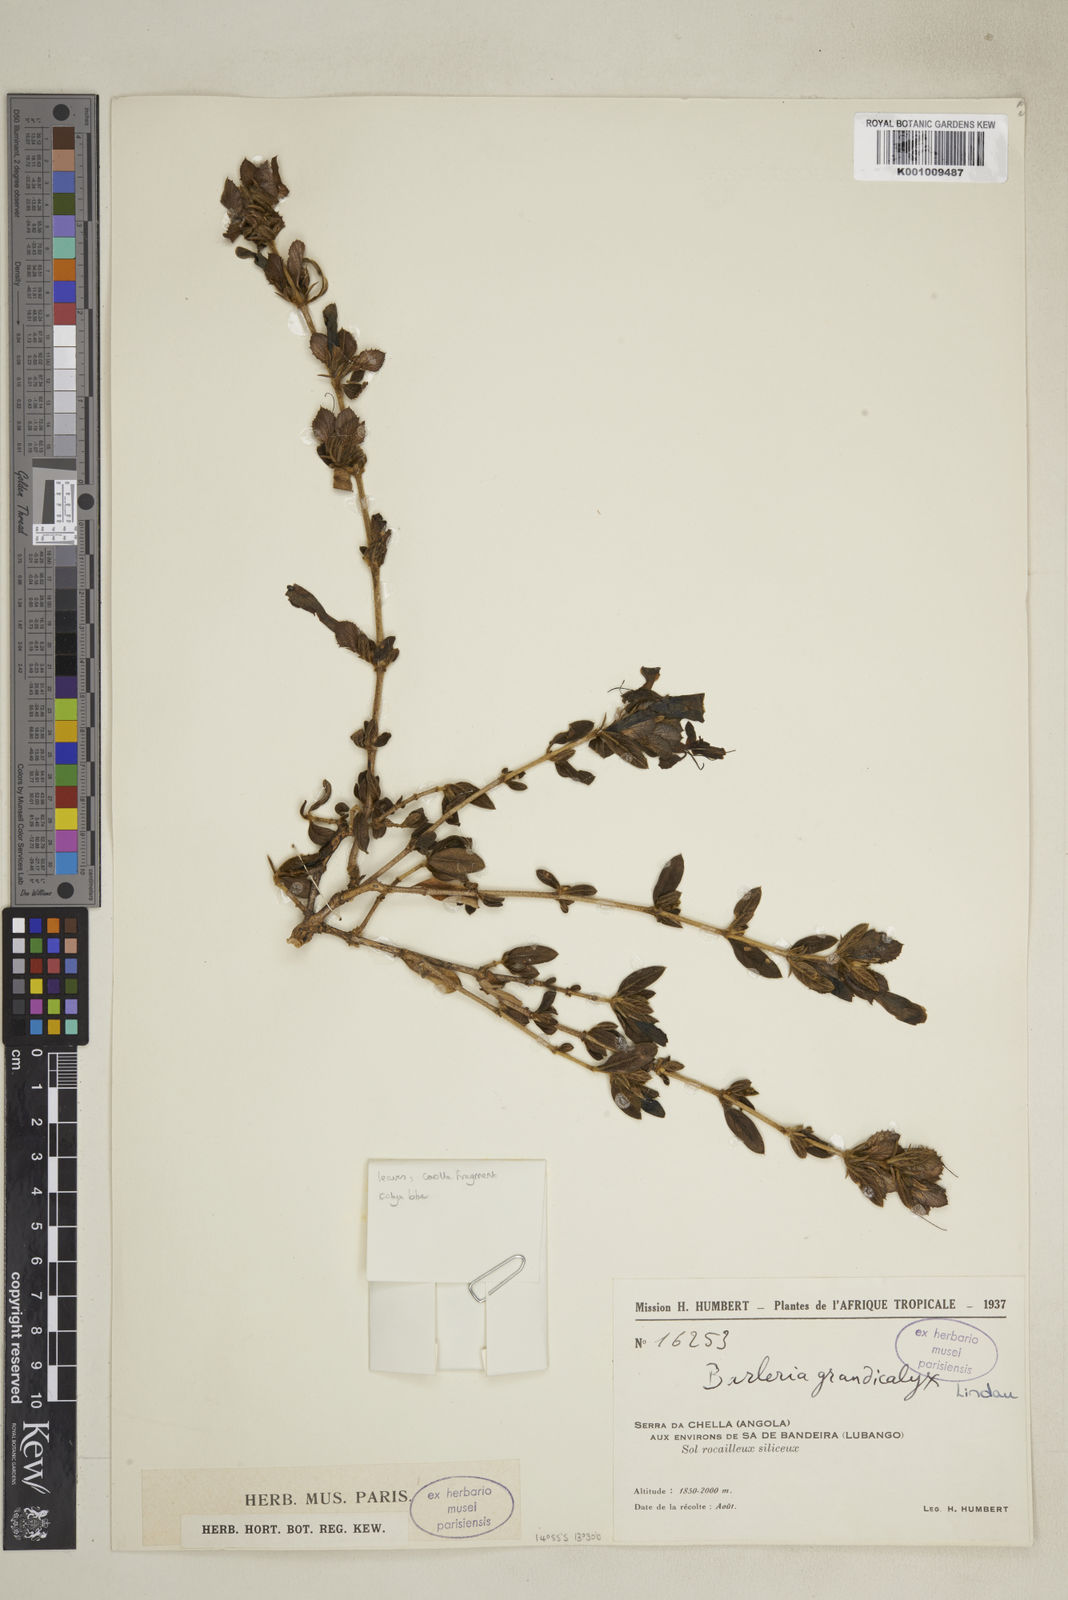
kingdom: Plantae
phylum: Tracheophyta
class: Magnoliopsida
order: Lamiales
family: Acanthaceae
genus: Barleria
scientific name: Barleria
